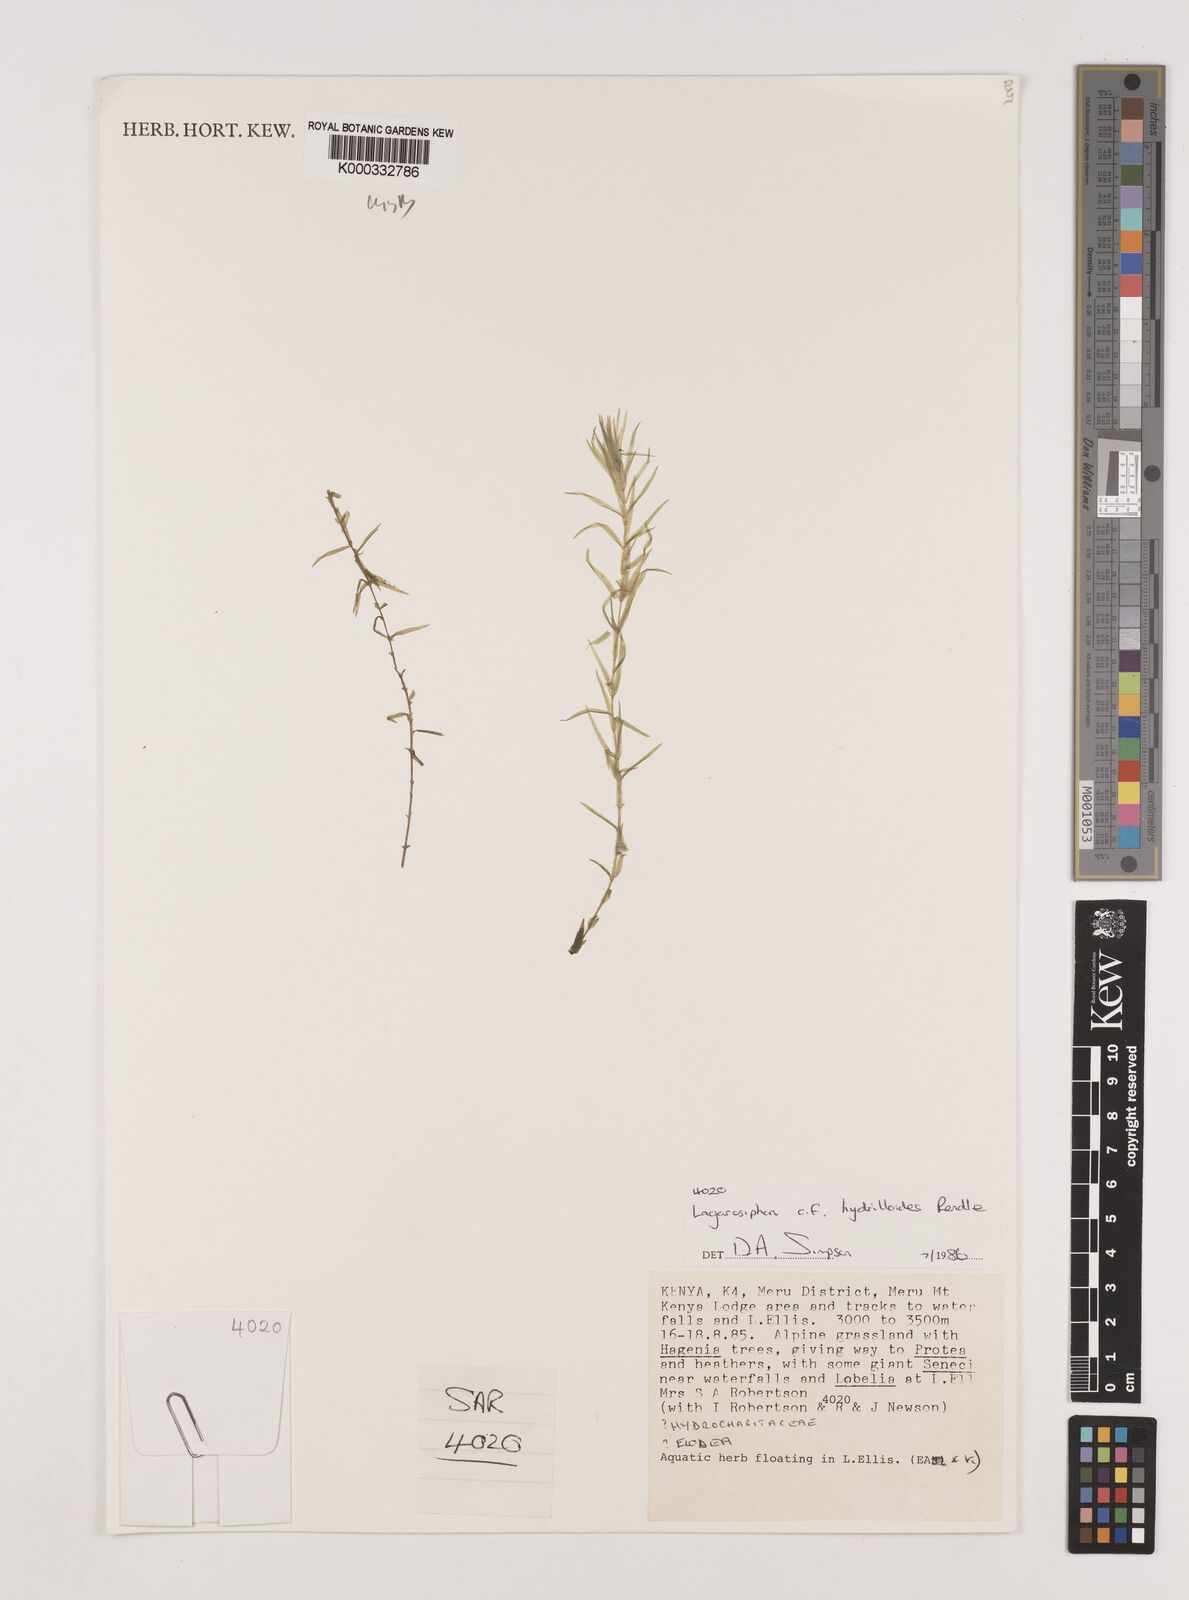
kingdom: Plantae
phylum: Tracheophyta
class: Liliopsida
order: Alismatales
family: Hydrocharitaceae
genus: Lagarosiphon
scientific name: Lagarosiphon hydrilloides
